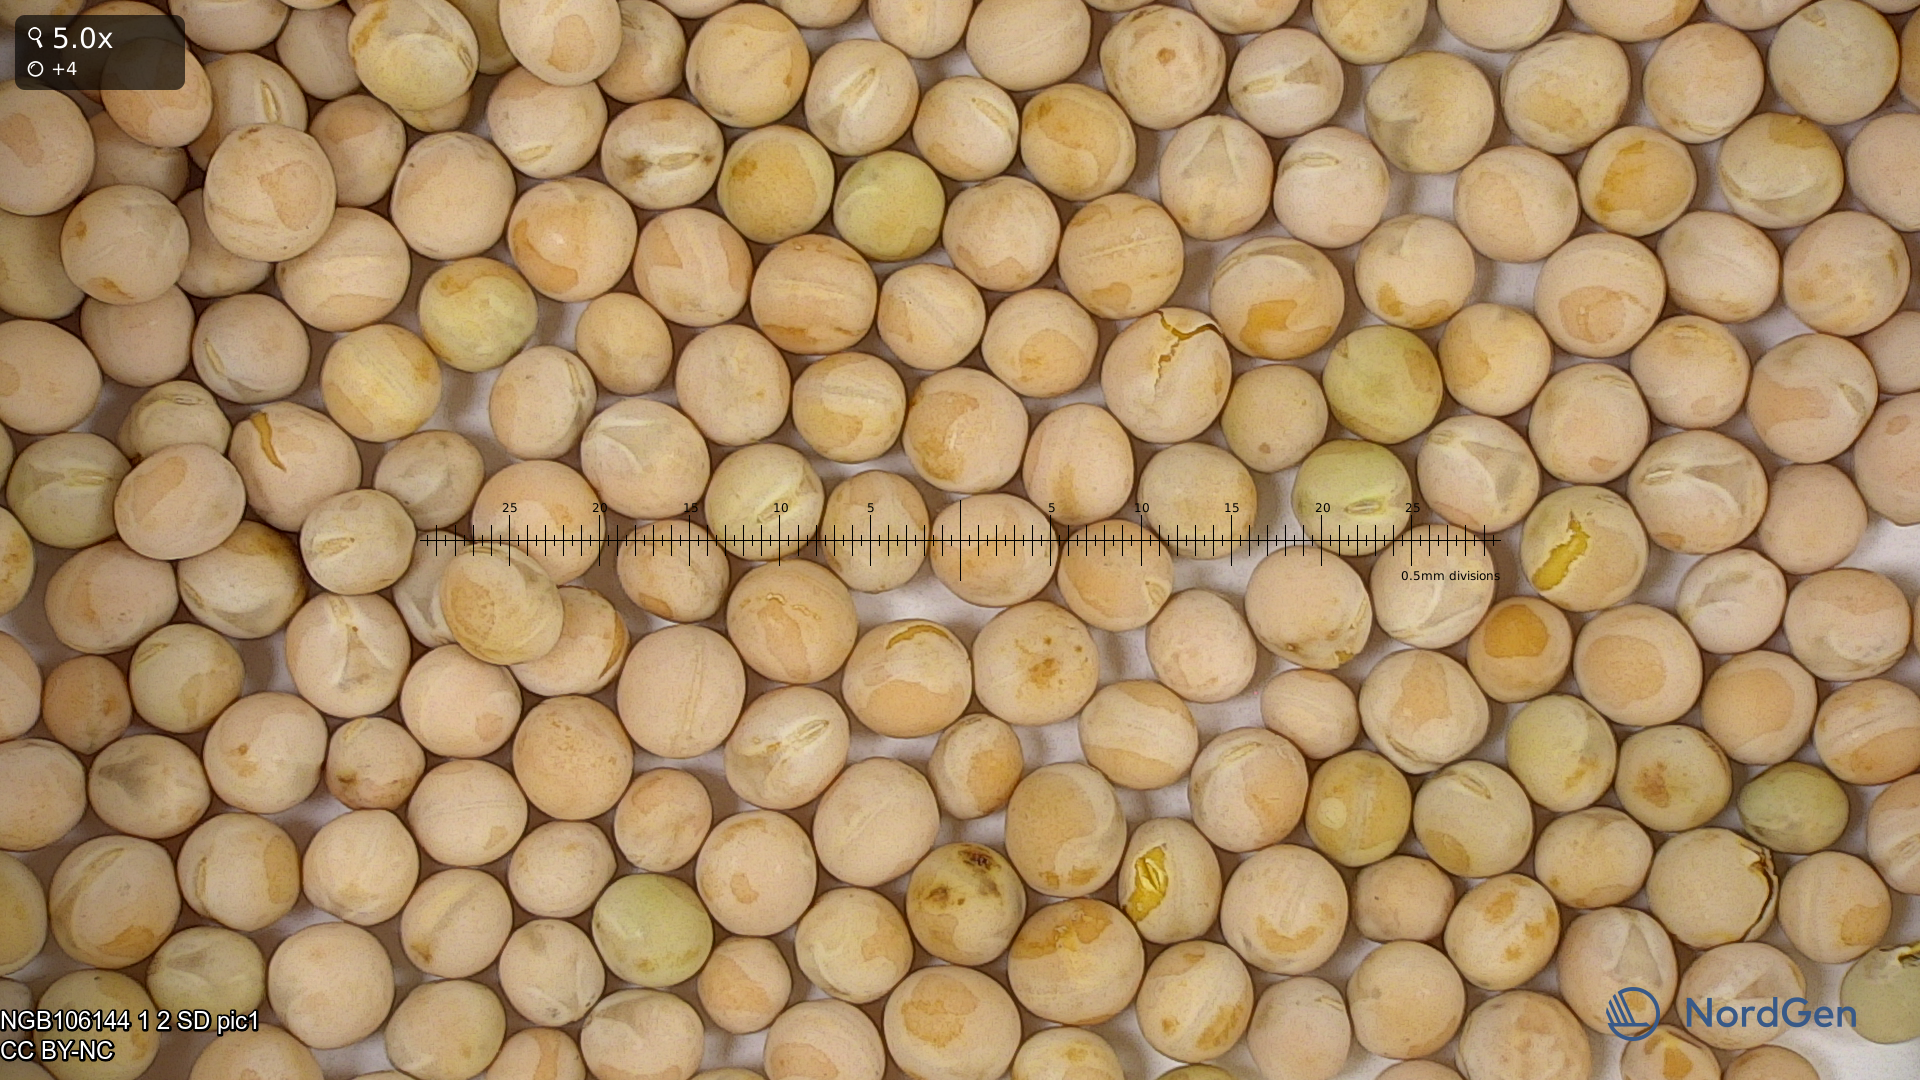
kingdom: Plantae
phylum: Tracheophyta
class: Magnoliopsida
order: Fabales
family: Fabaceae
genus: Lathyrus
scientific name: Lathyrus oleraceus
